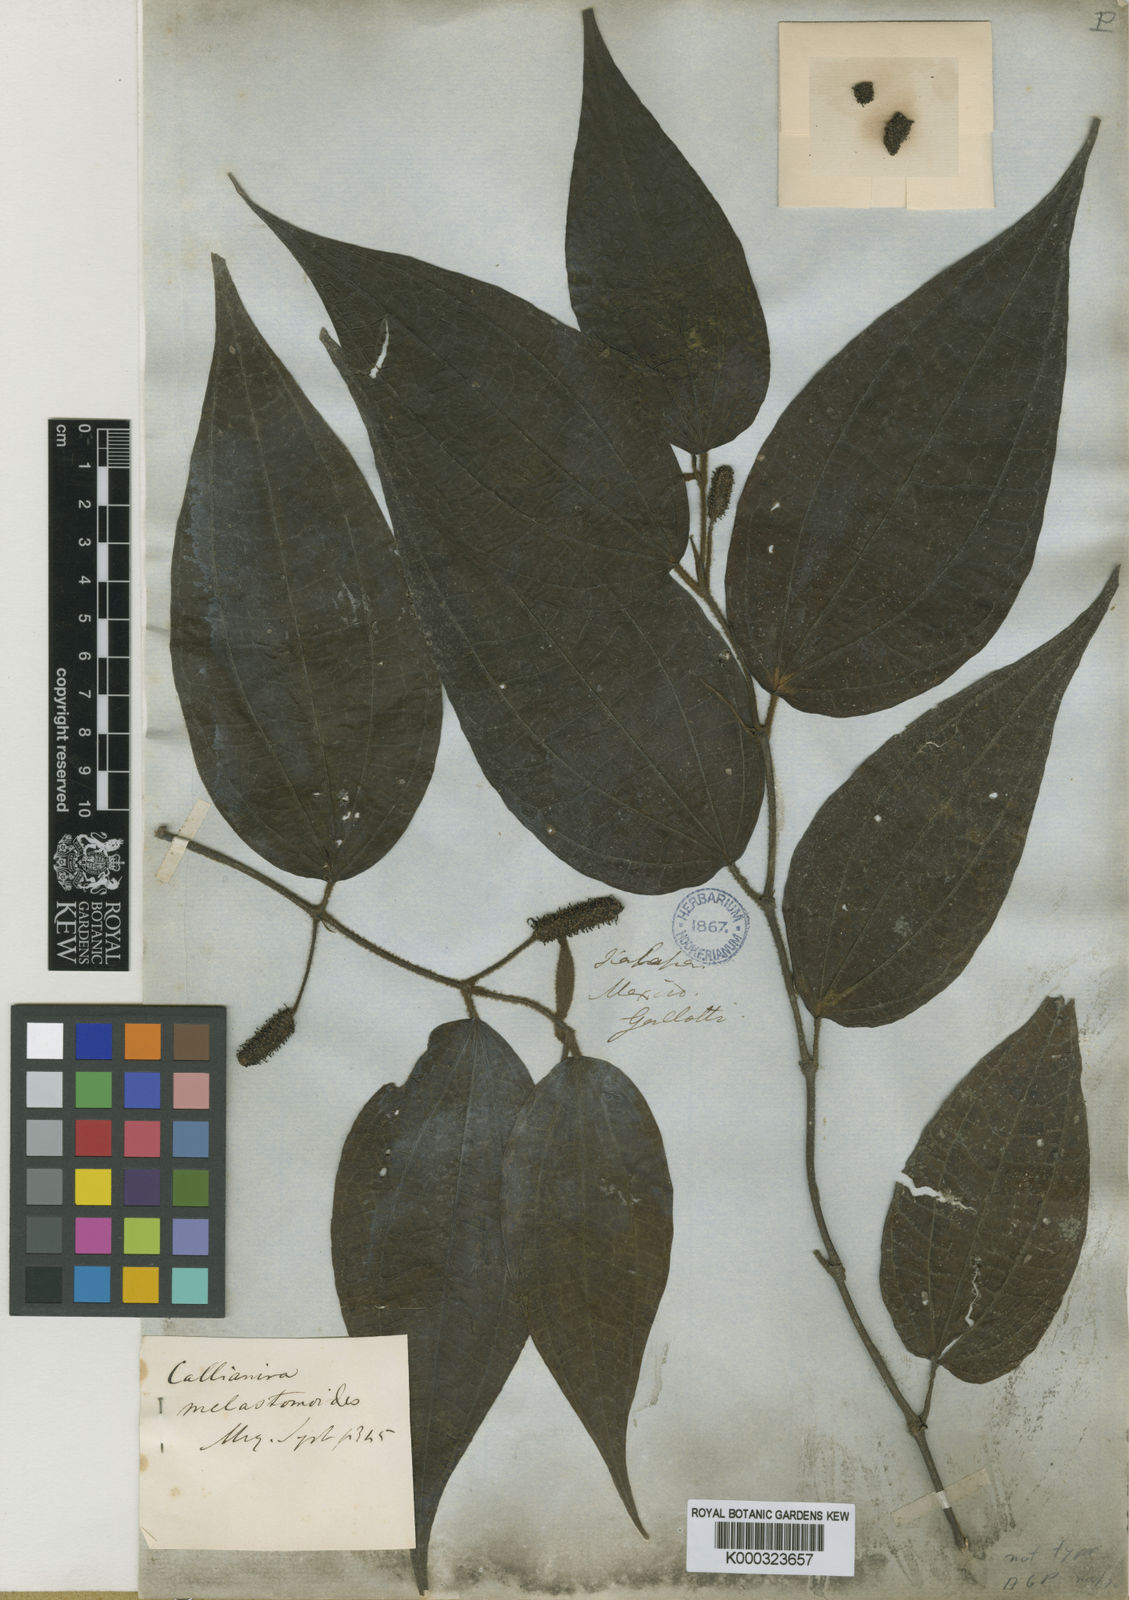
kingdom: Plantae
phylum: Tracheophyta
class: Magnoliopsida
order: Piperales
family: Piperaceae
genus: Piper
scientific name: Piper melastomoides
